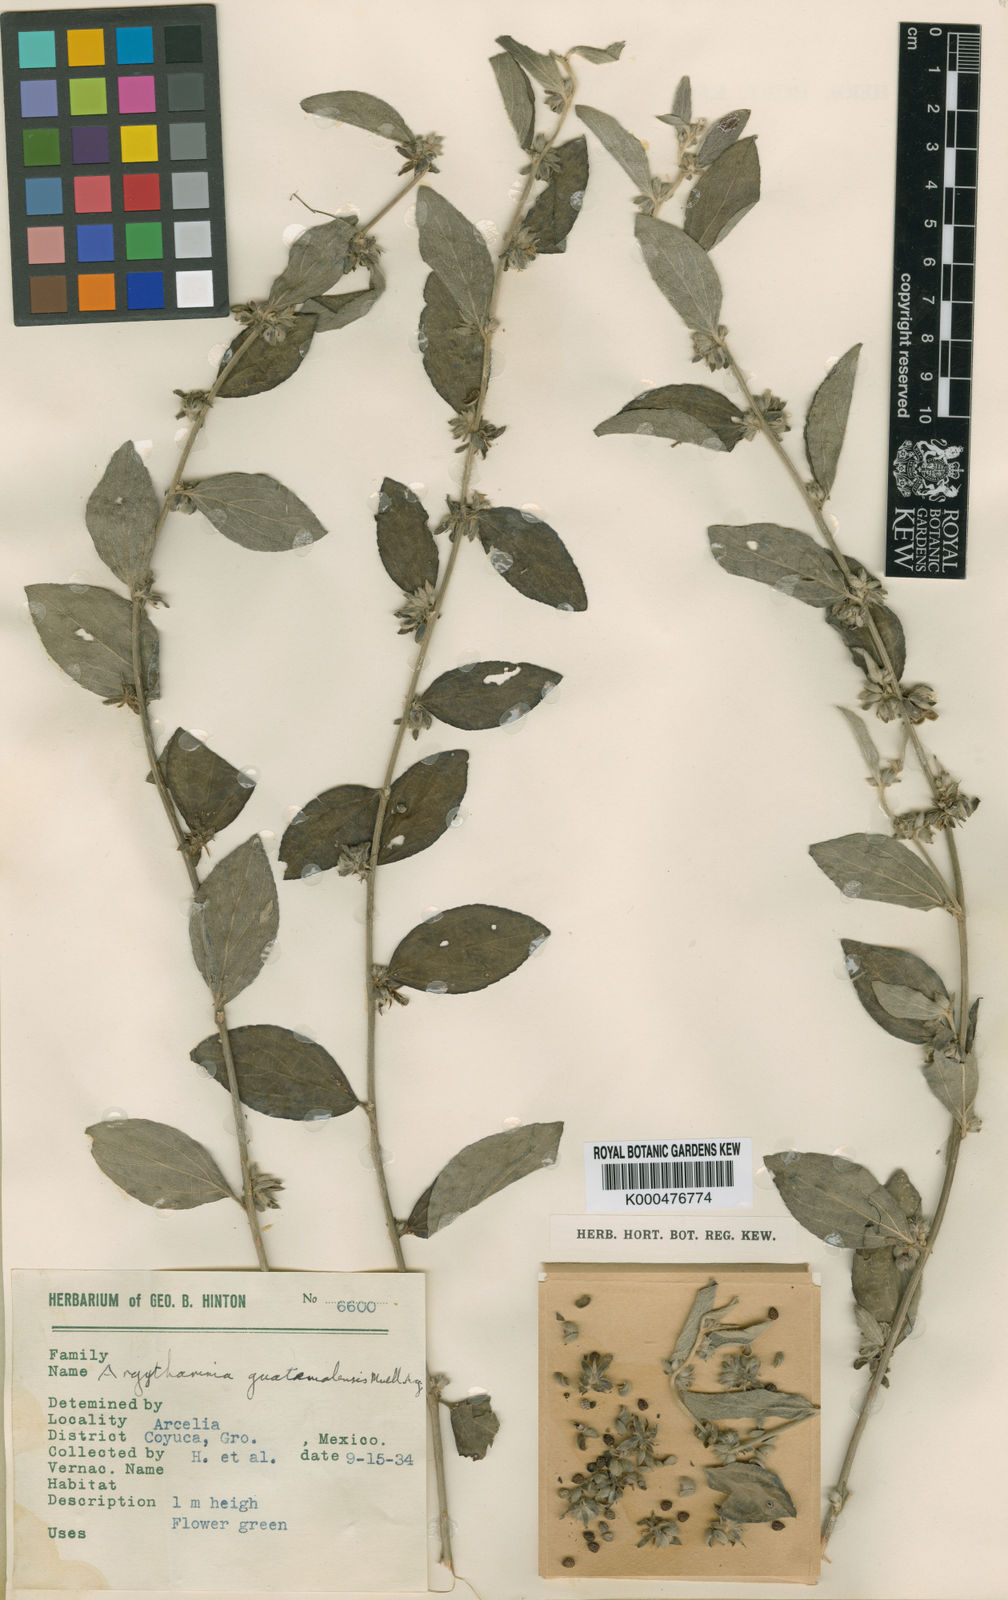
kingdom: Plantae
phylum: Tracheophyta
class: Magnoliopsida
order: Malpighiales
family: Euphorbiaceae
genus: Ditaxis
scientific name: Ditaxis
